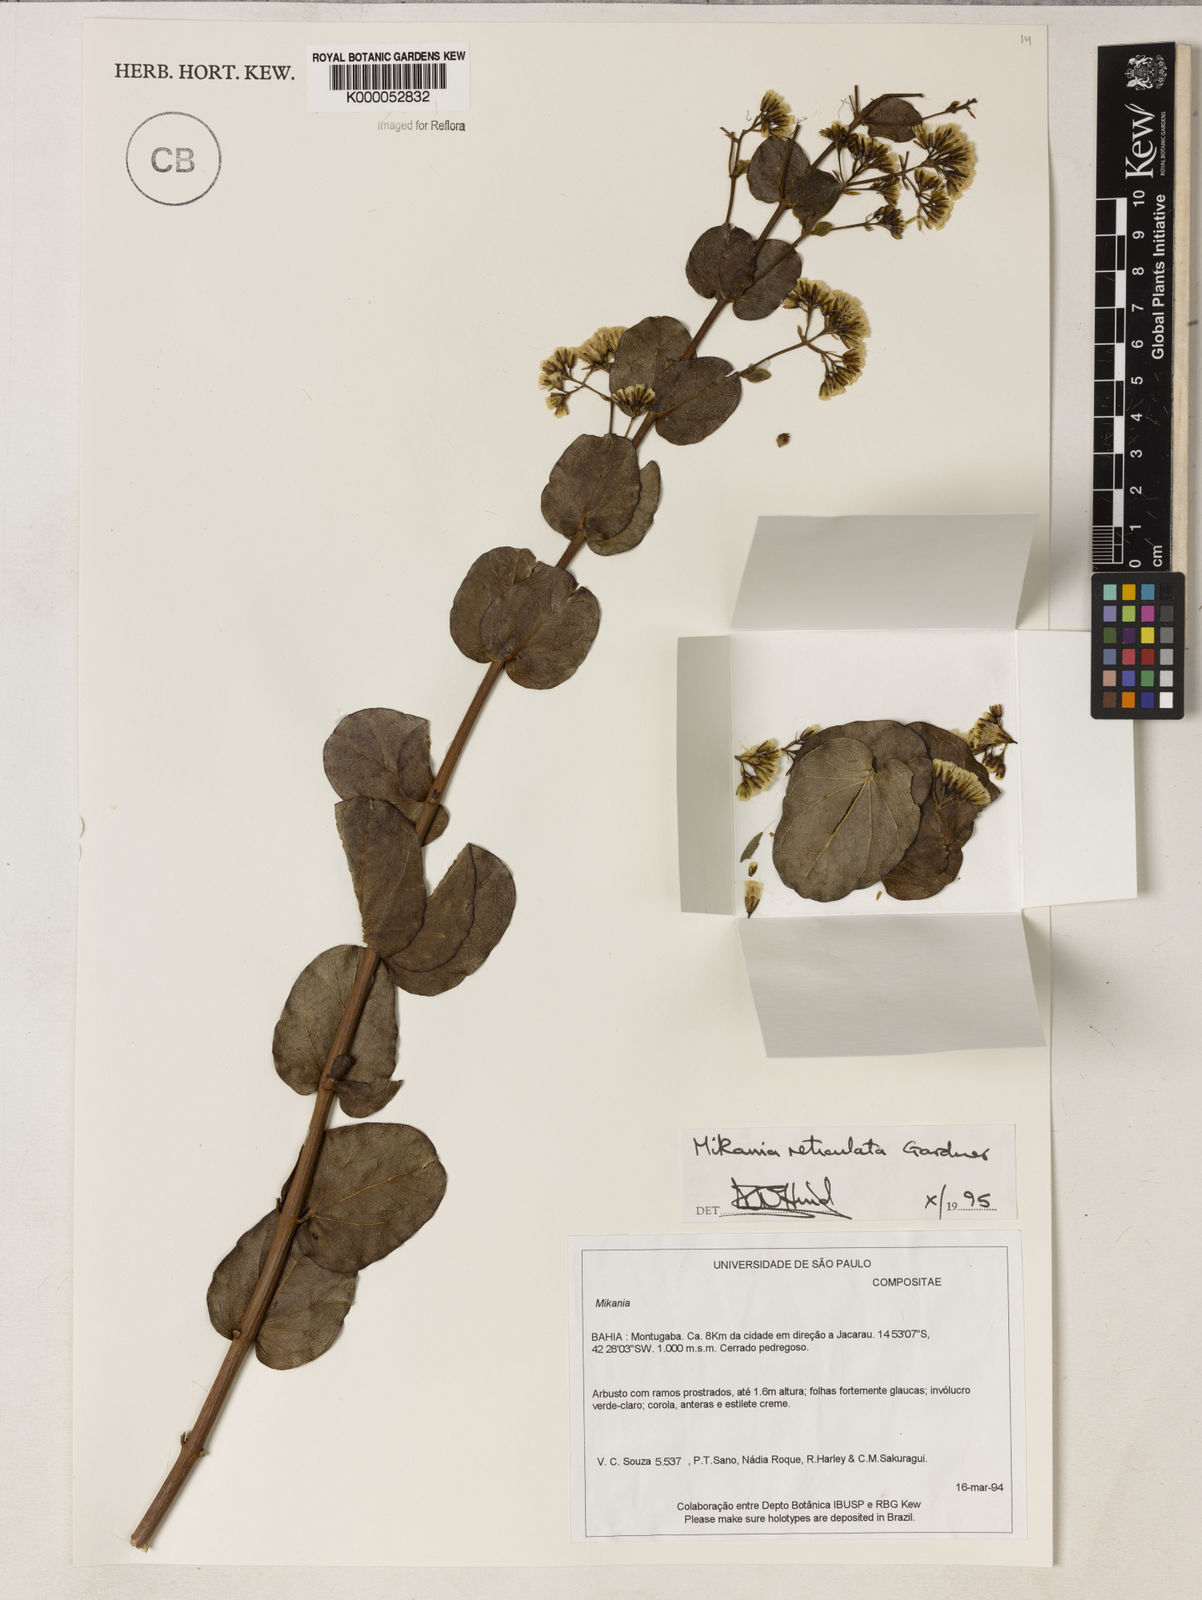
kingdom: Plantae
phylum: Tracheophyta
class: Magnoliopsida
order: Asterales
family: Asteraceae
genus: Mikania
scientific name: Mikania reticulata
